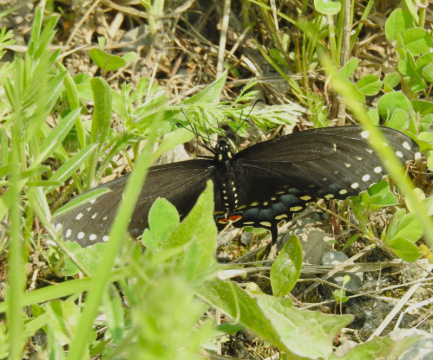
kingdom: Animalia
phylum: Arthropoda
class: Insecta
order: Lepidoptera
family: Papilionidae
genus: Papilio
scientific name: Papilio polyxenes
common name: Black Swallowtail
